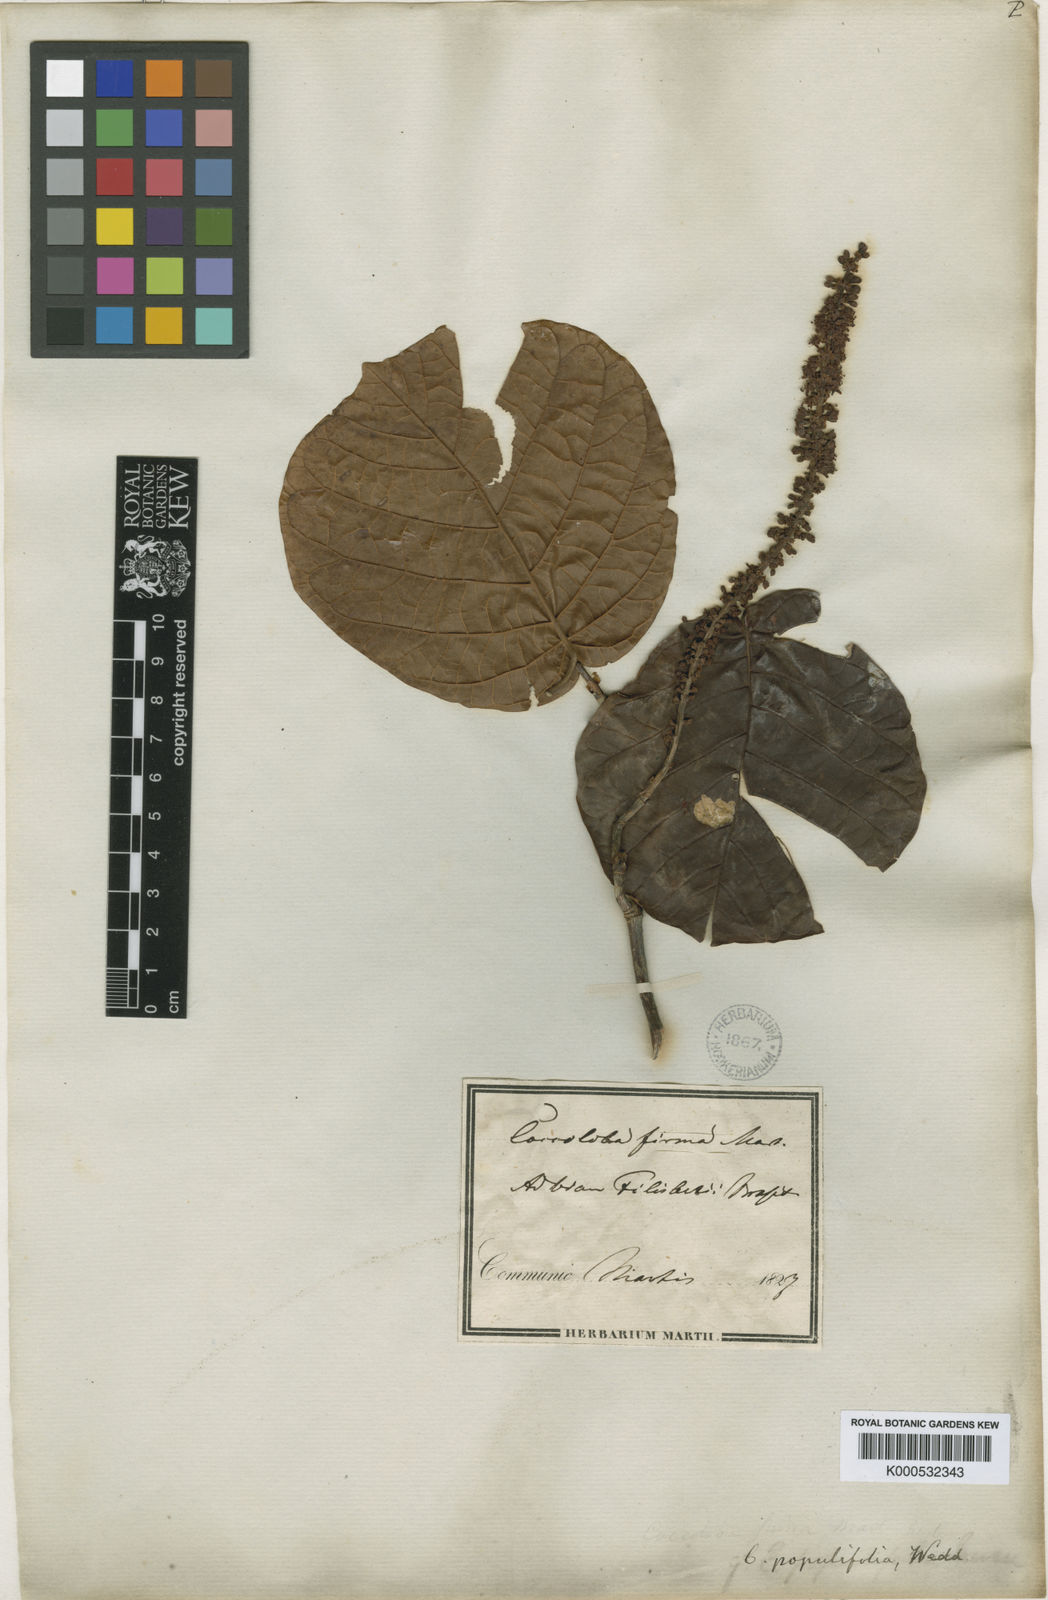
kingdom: Plantae
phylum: Tracheophyta
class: Magnoliopsida
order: Caryophyllales
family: Polygonaceae
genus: Coccoloba
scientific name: Coccoloba alnifolia
